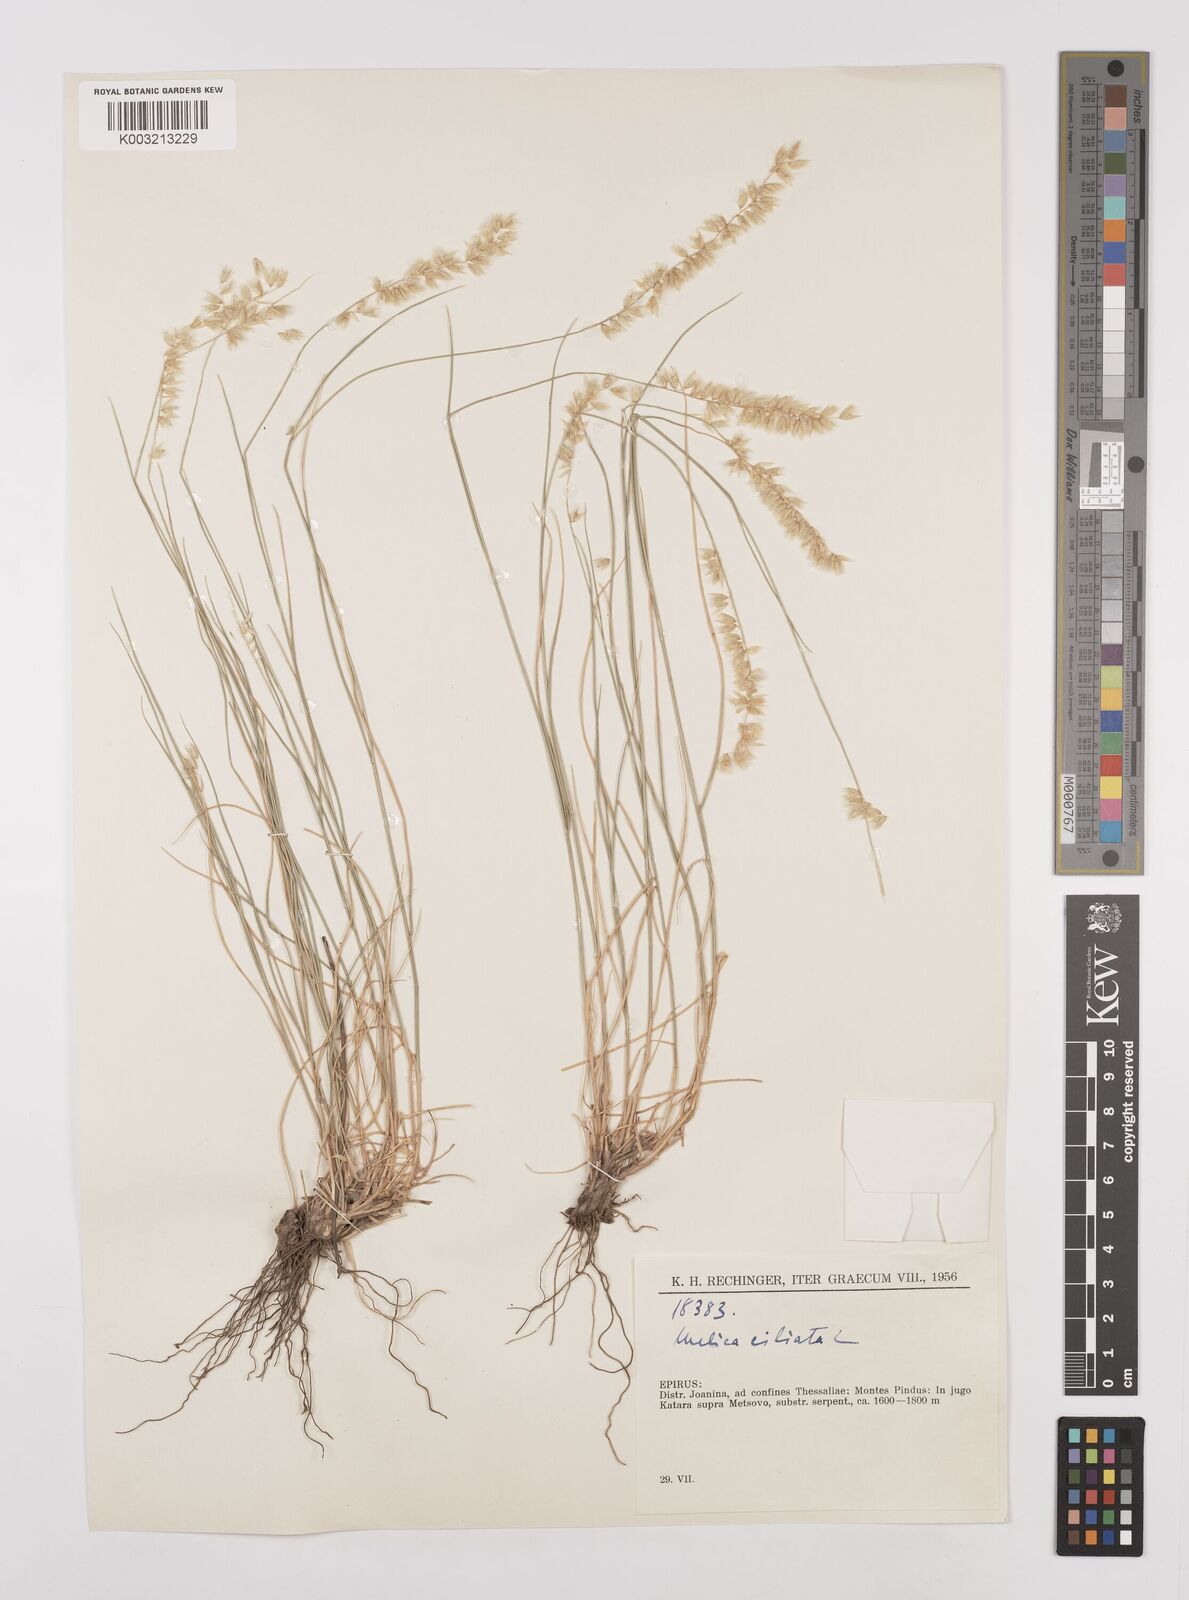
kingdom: Plantae
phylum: Tracheophyta
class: Liliopsida
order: Poales
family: Poaceae
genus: Melica
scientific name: Melica ciliata
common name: Hairy melicgrass
